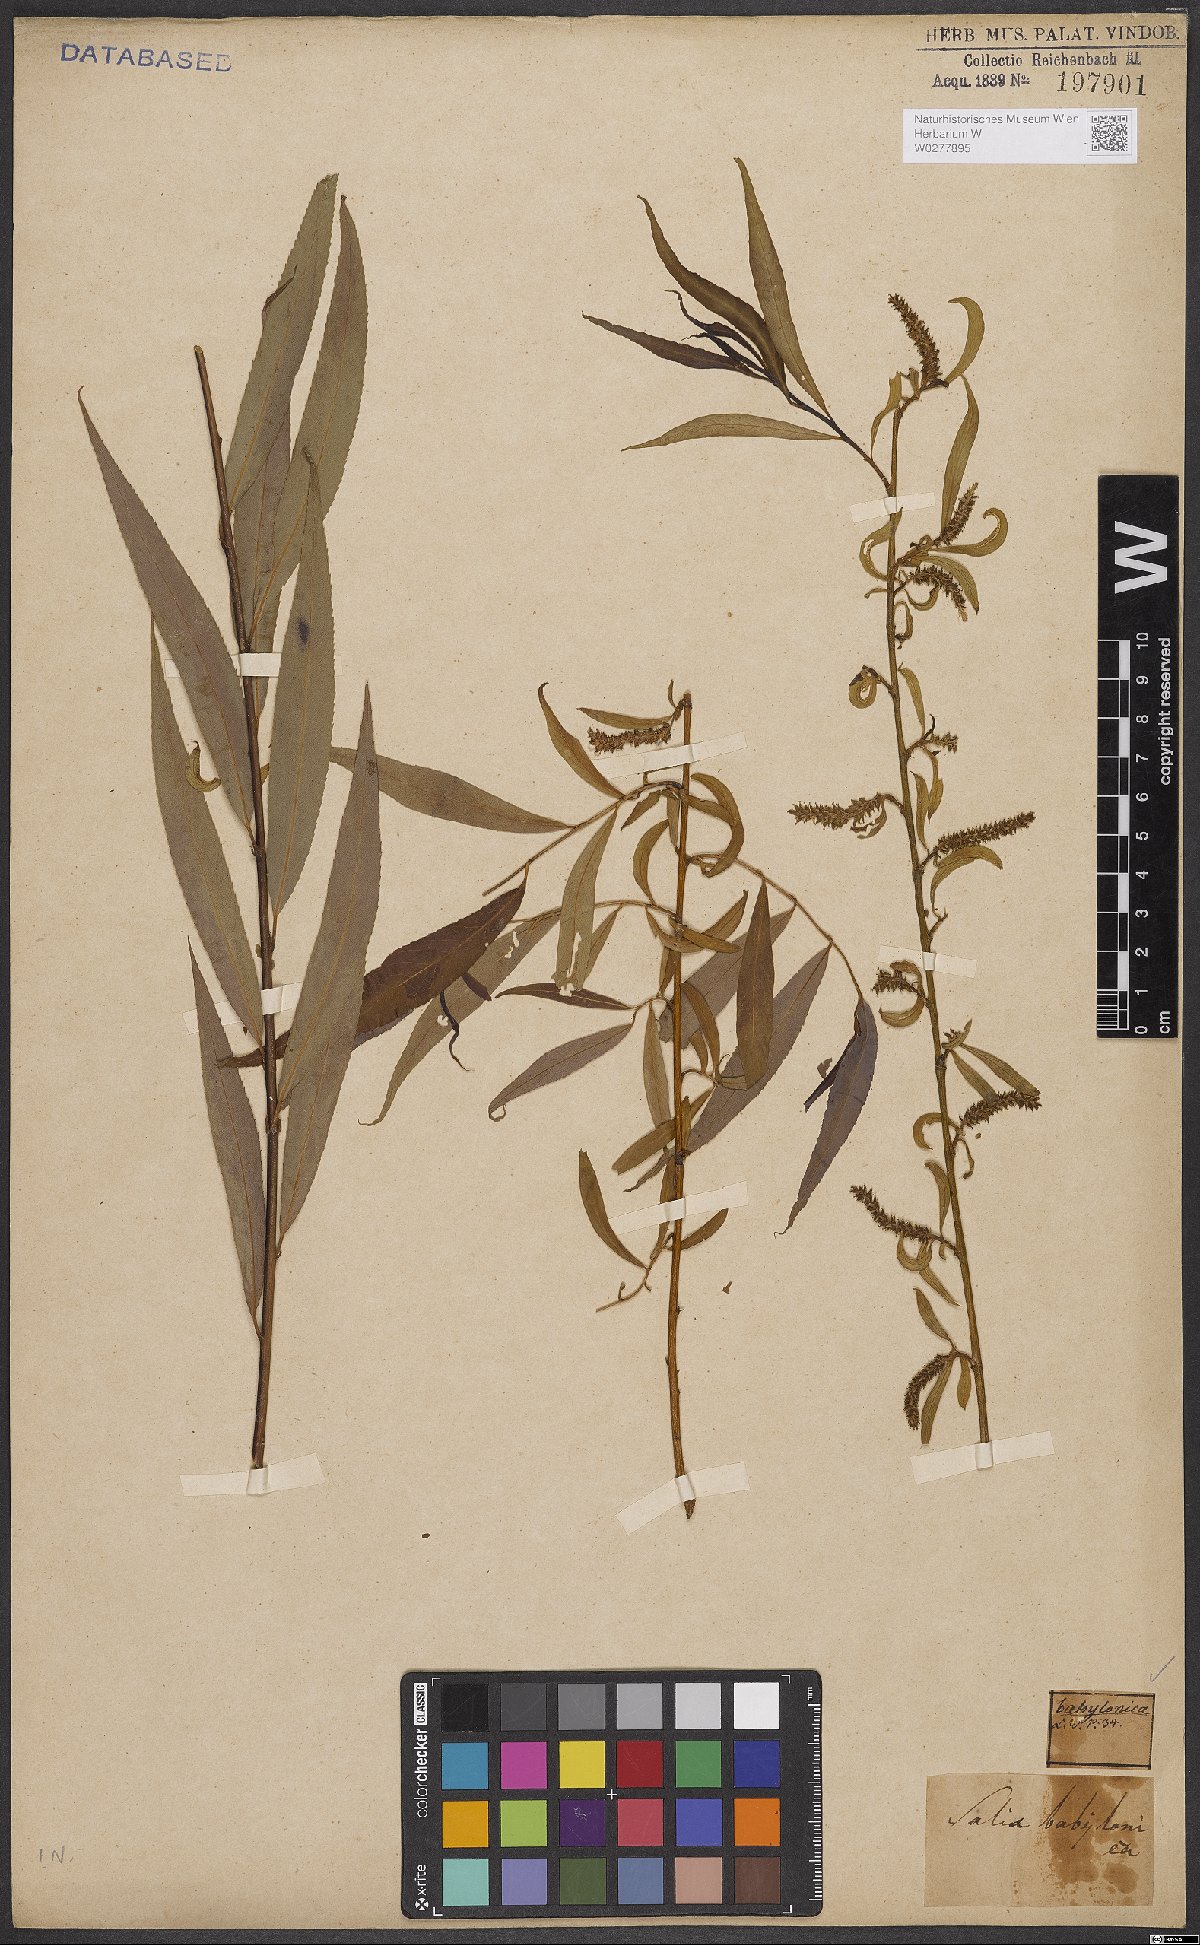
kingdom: Plantae
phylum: Tracheophyta
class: Magnoliopsida
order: Malpighiales
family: Salicaceae
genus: Salix
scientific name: Salix babylonica
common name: Weeping willow
